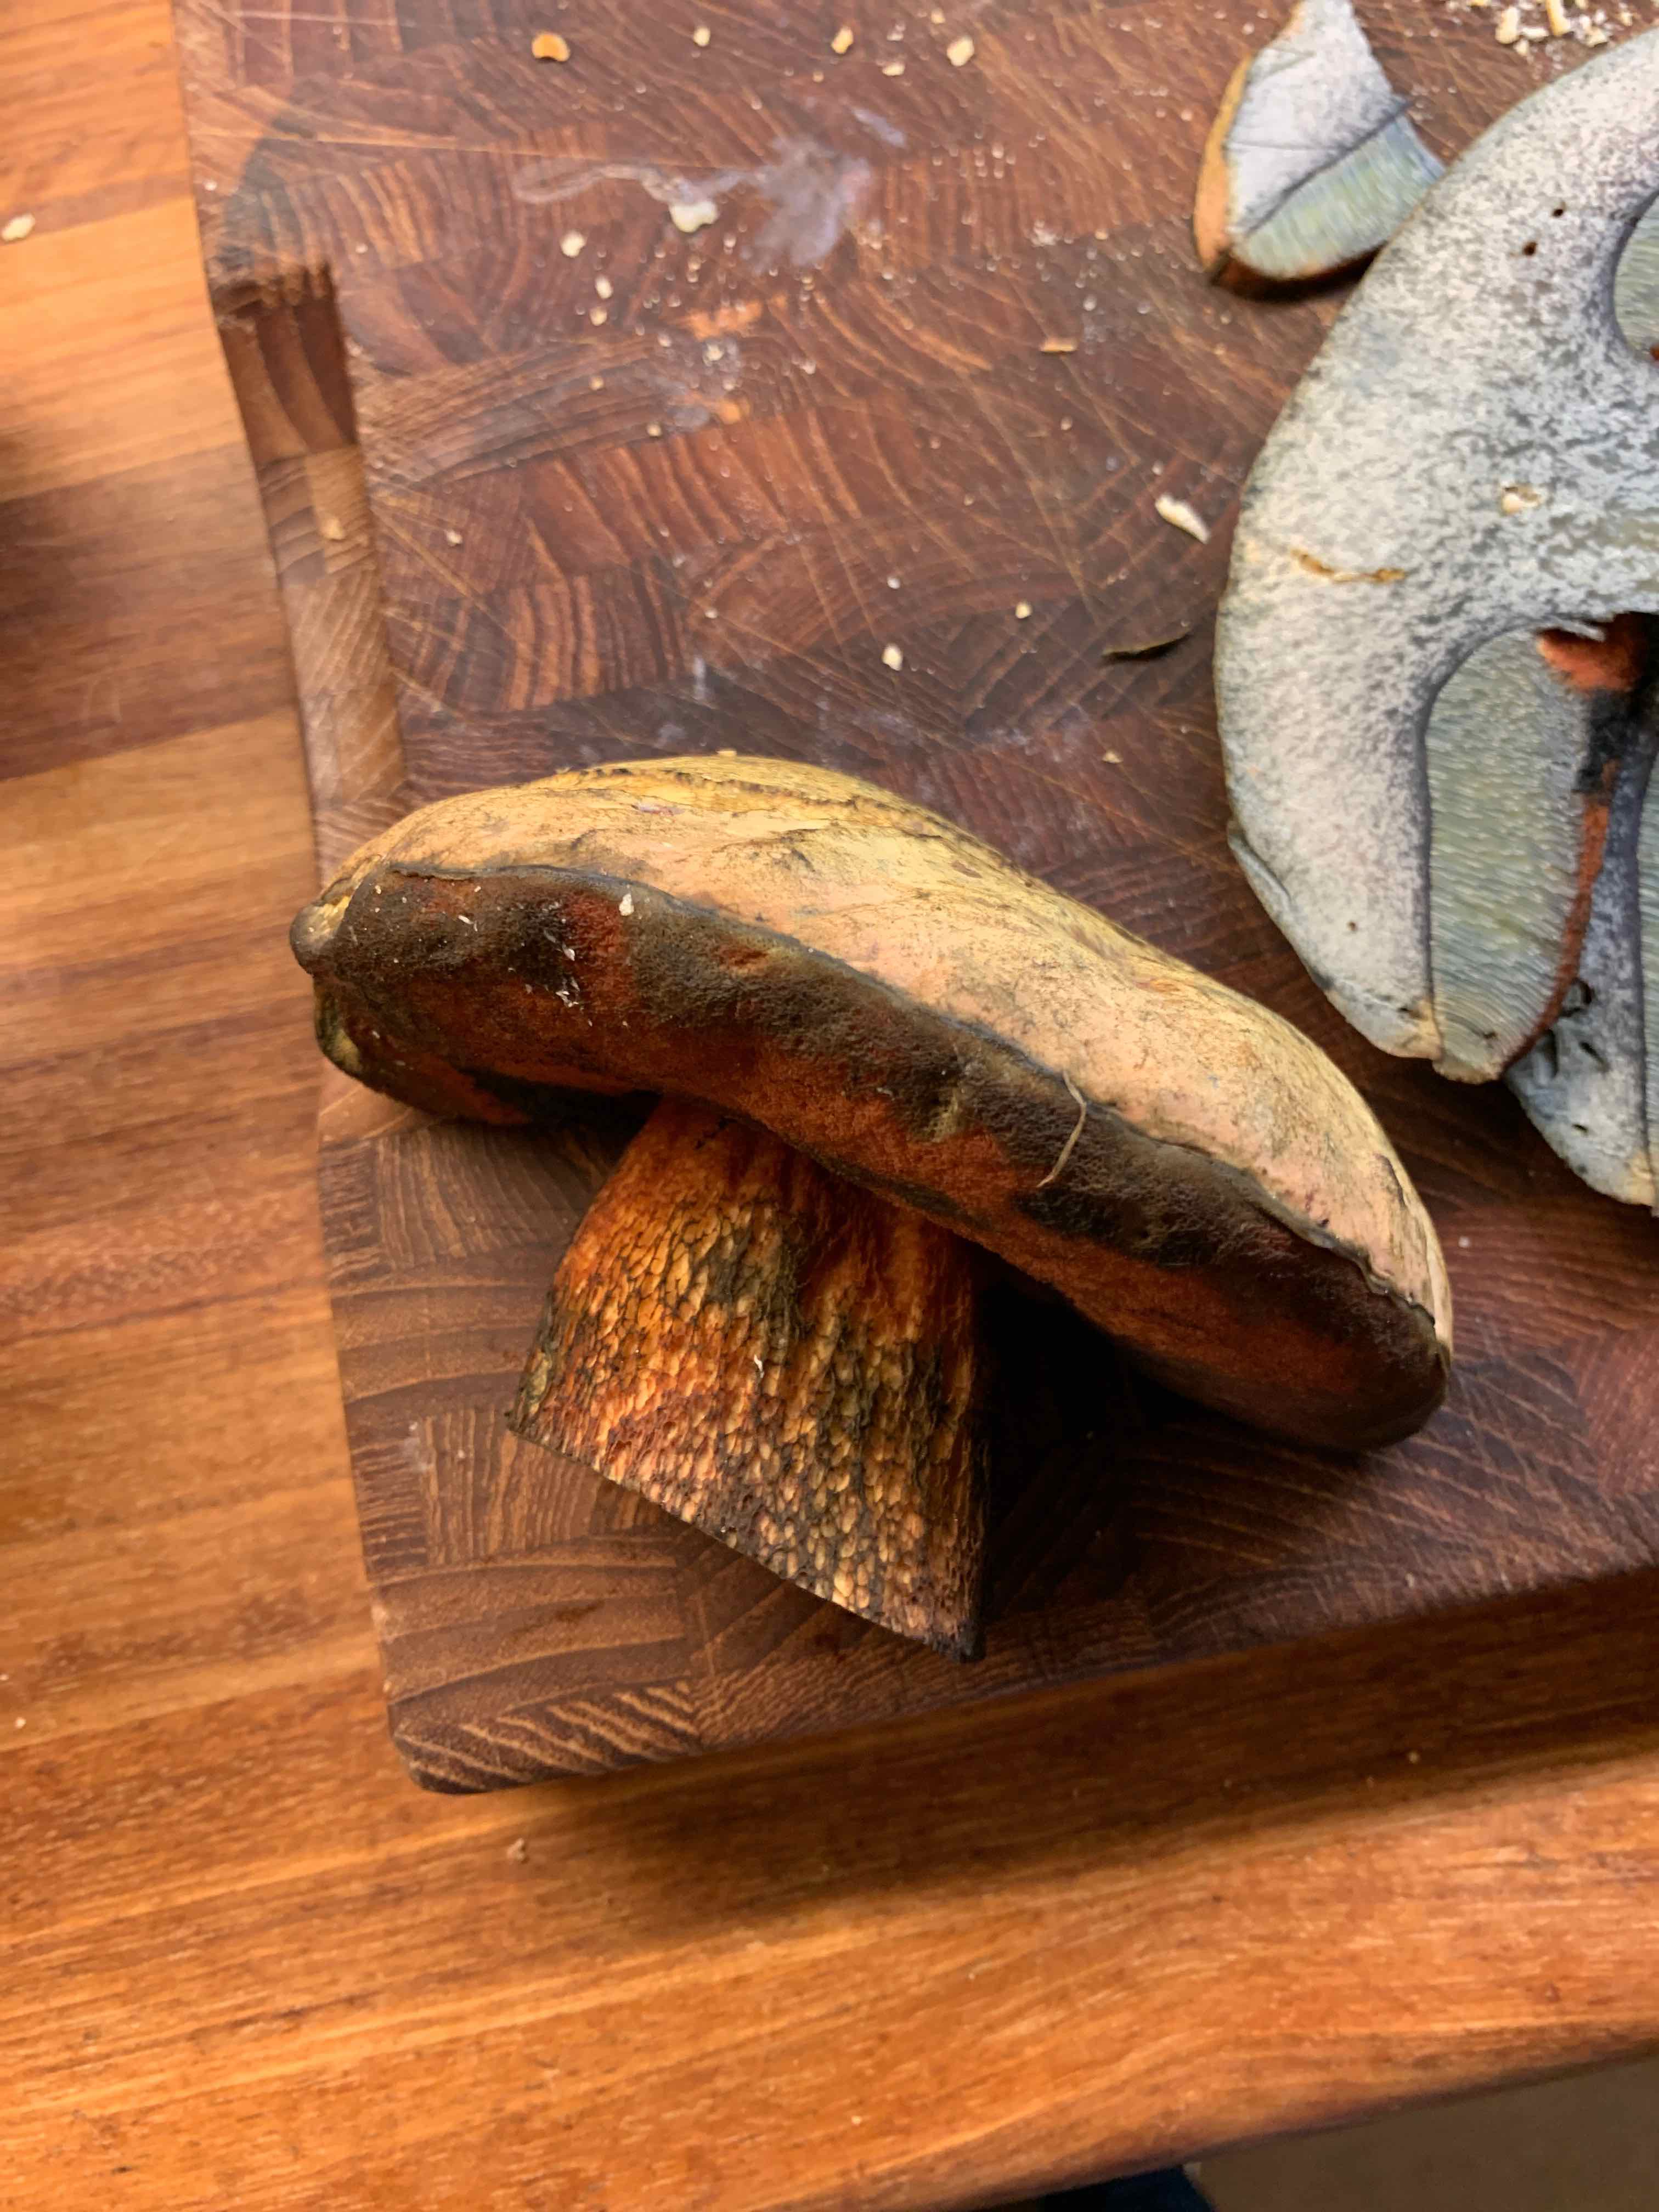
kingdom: Fungi
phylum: Basidiomycota
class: Agaricomycetes
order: Boletales
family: Boletaceae
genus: Suillellus
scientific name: Suillellus luridus
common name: netstokket indigorørhat
